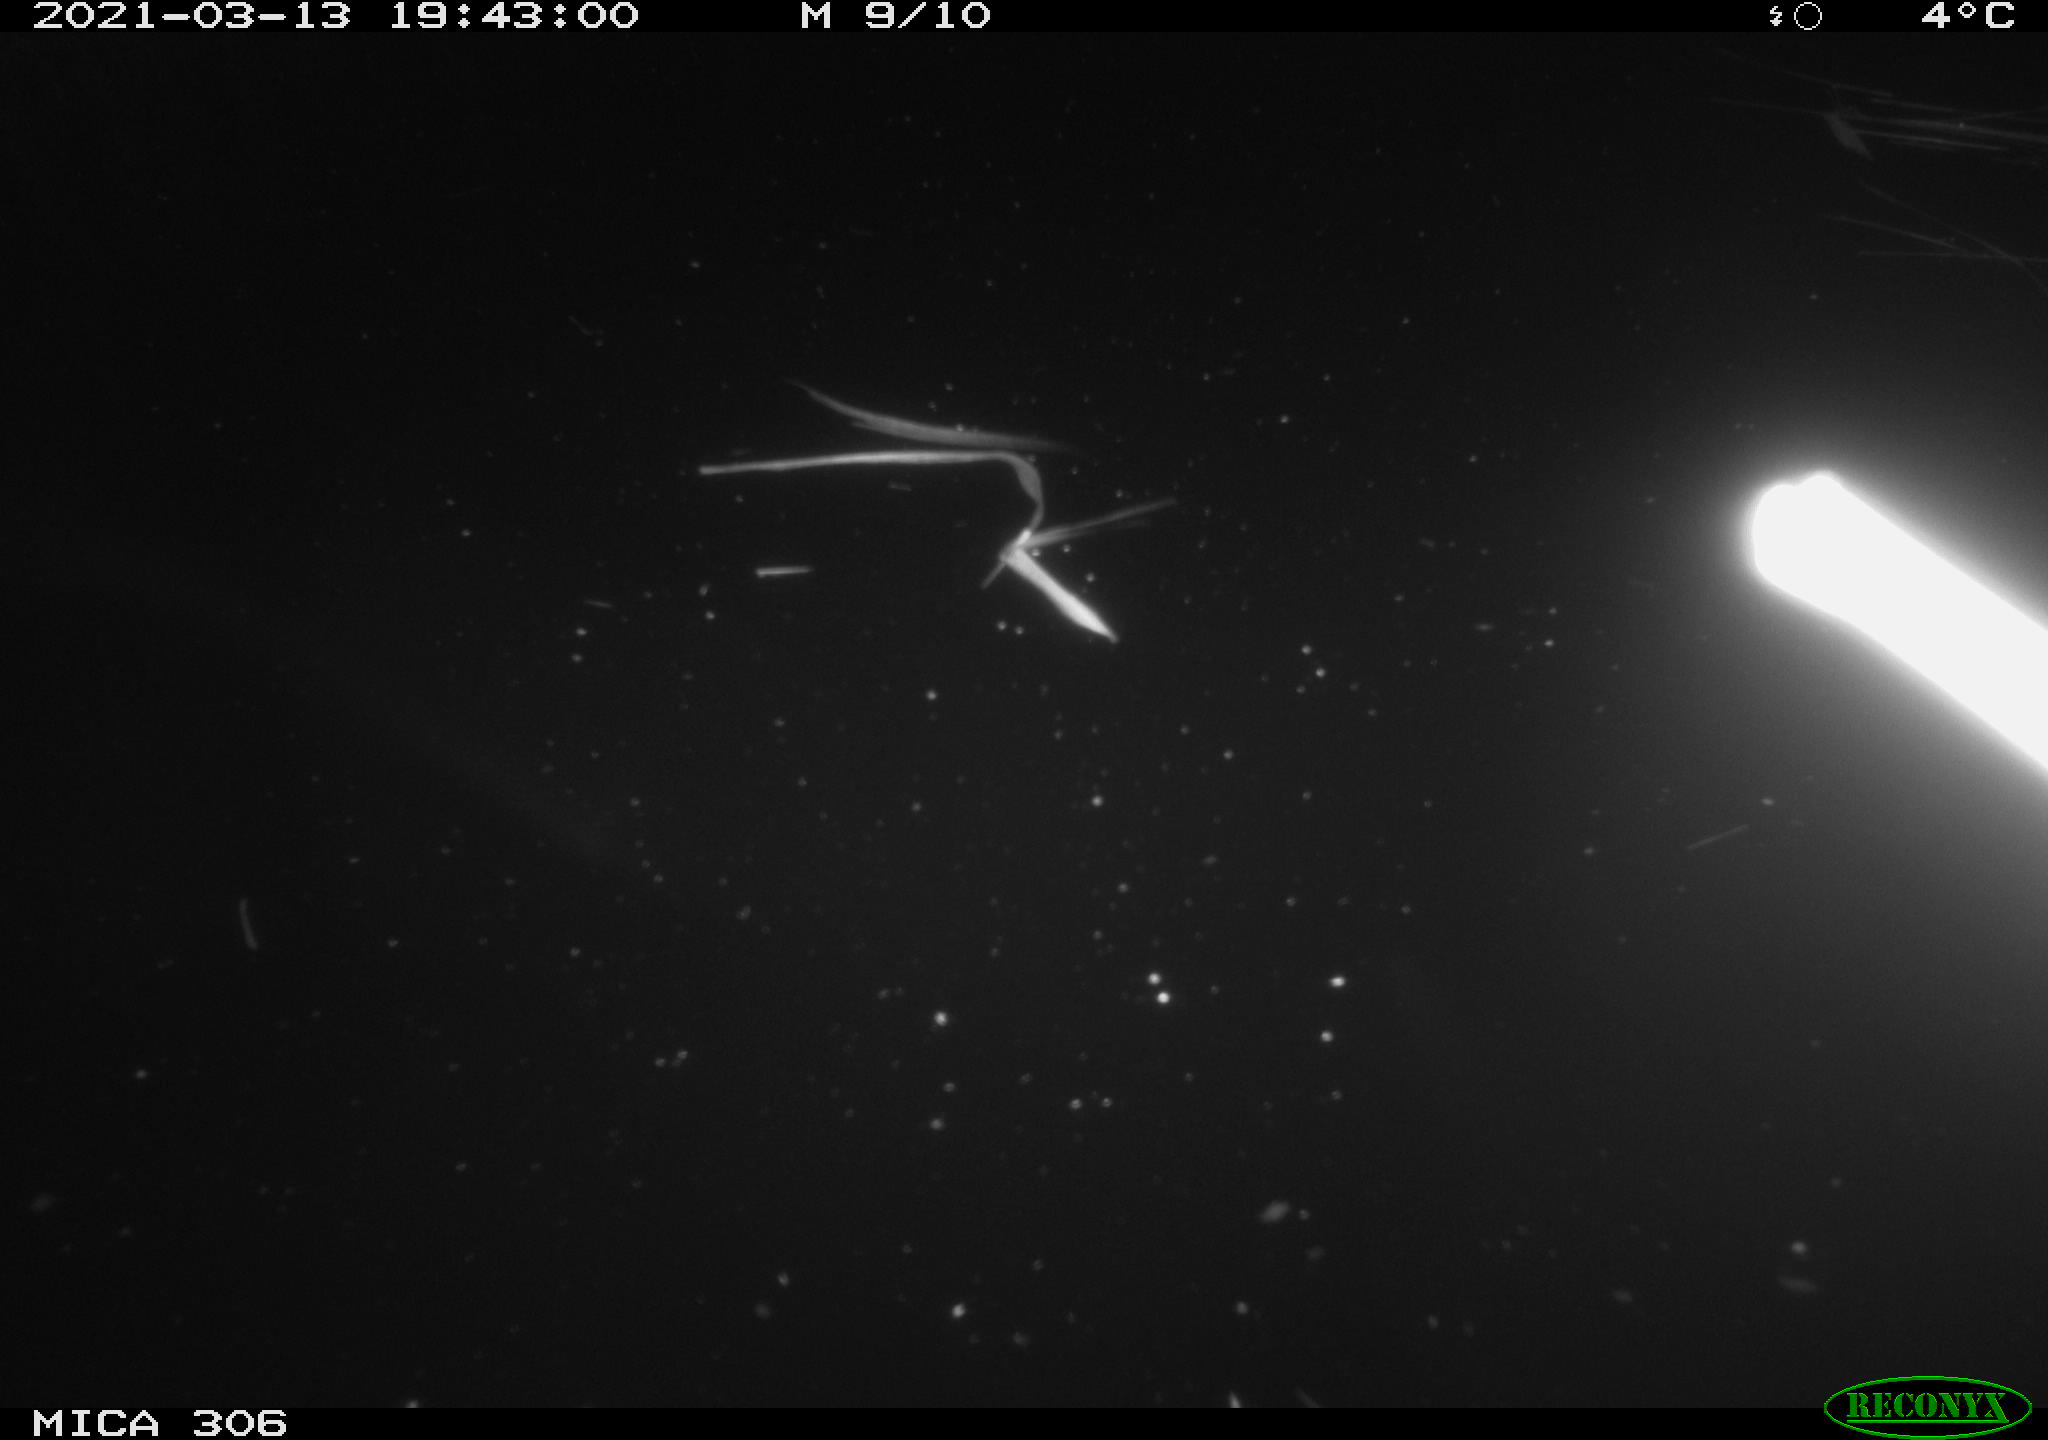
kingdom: Animalia
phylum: Chordata
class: Mammalia
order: Rodentia
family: Cricetidae
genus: Ondatra
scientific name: Ondatra zibethicus
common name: Muskrat
